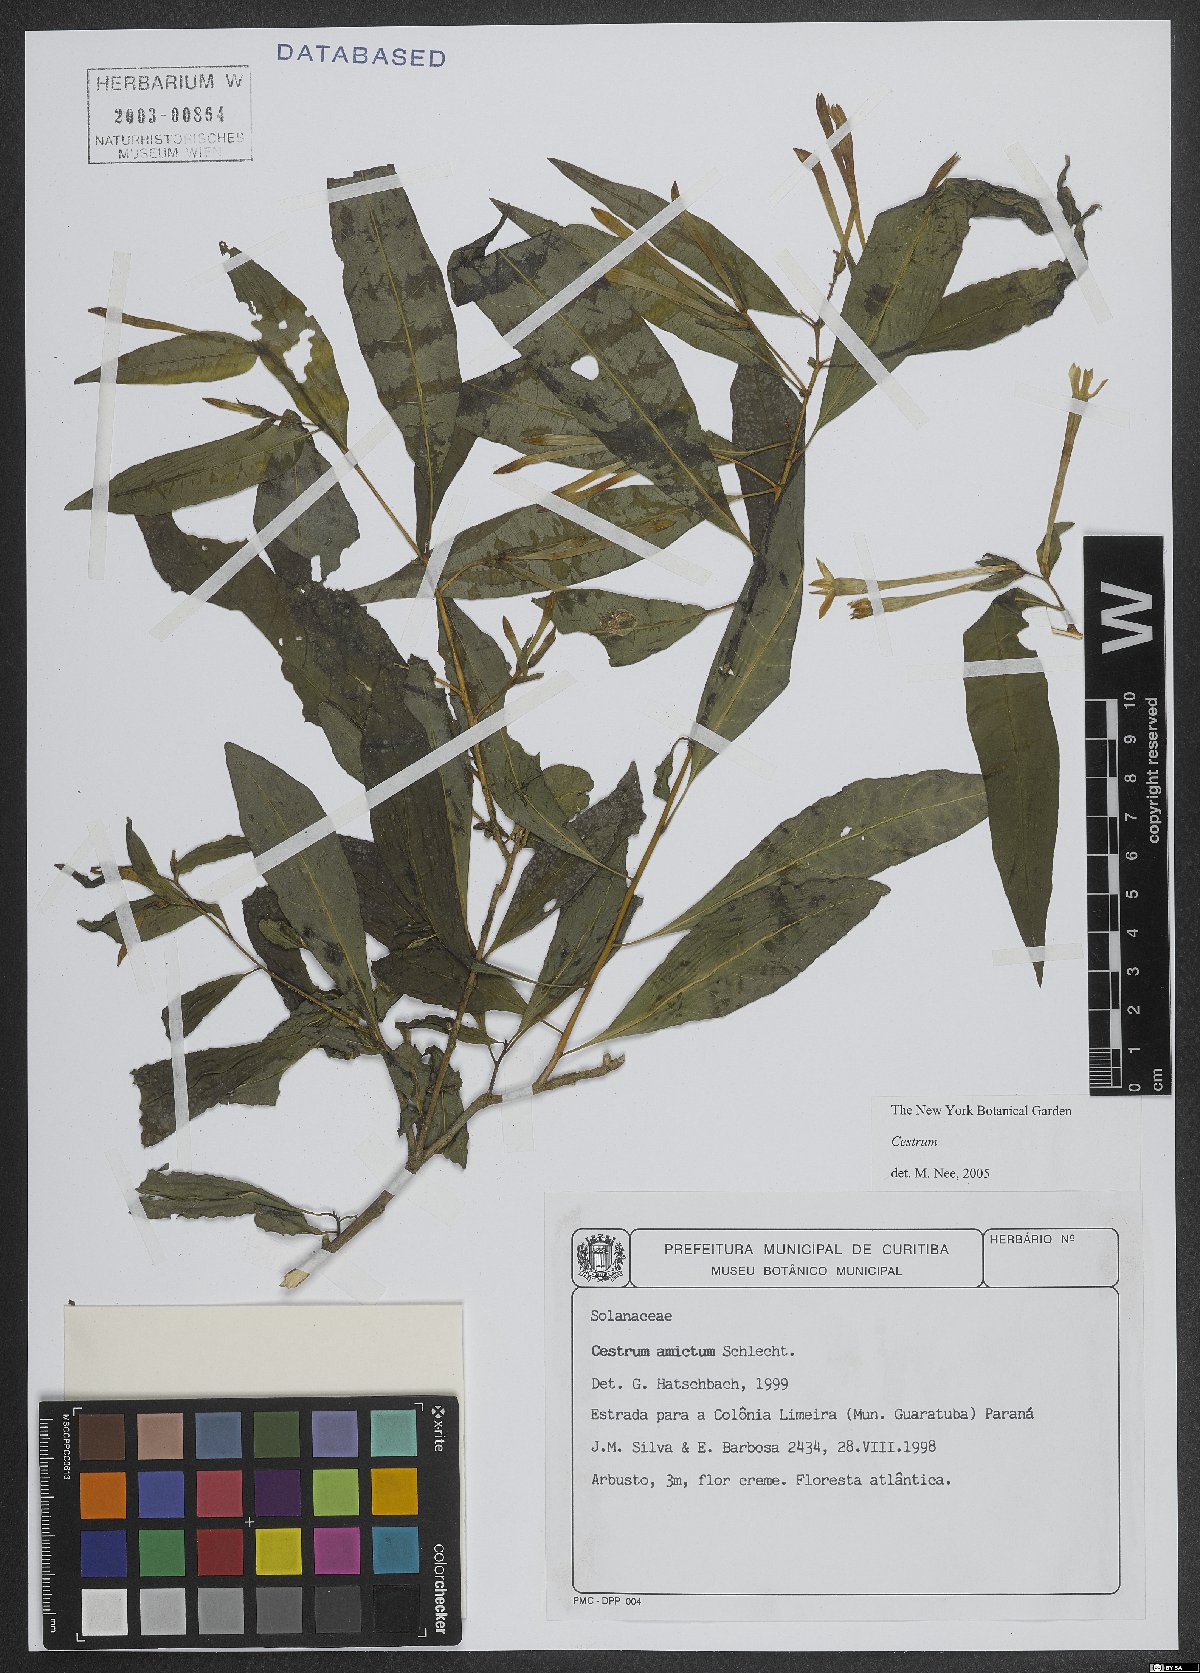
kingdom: Plantae
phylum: Tracheophyta
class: Magnoliopsida
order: Solanales
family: Solanaceae
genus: Cestrum
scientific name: Cestrum
